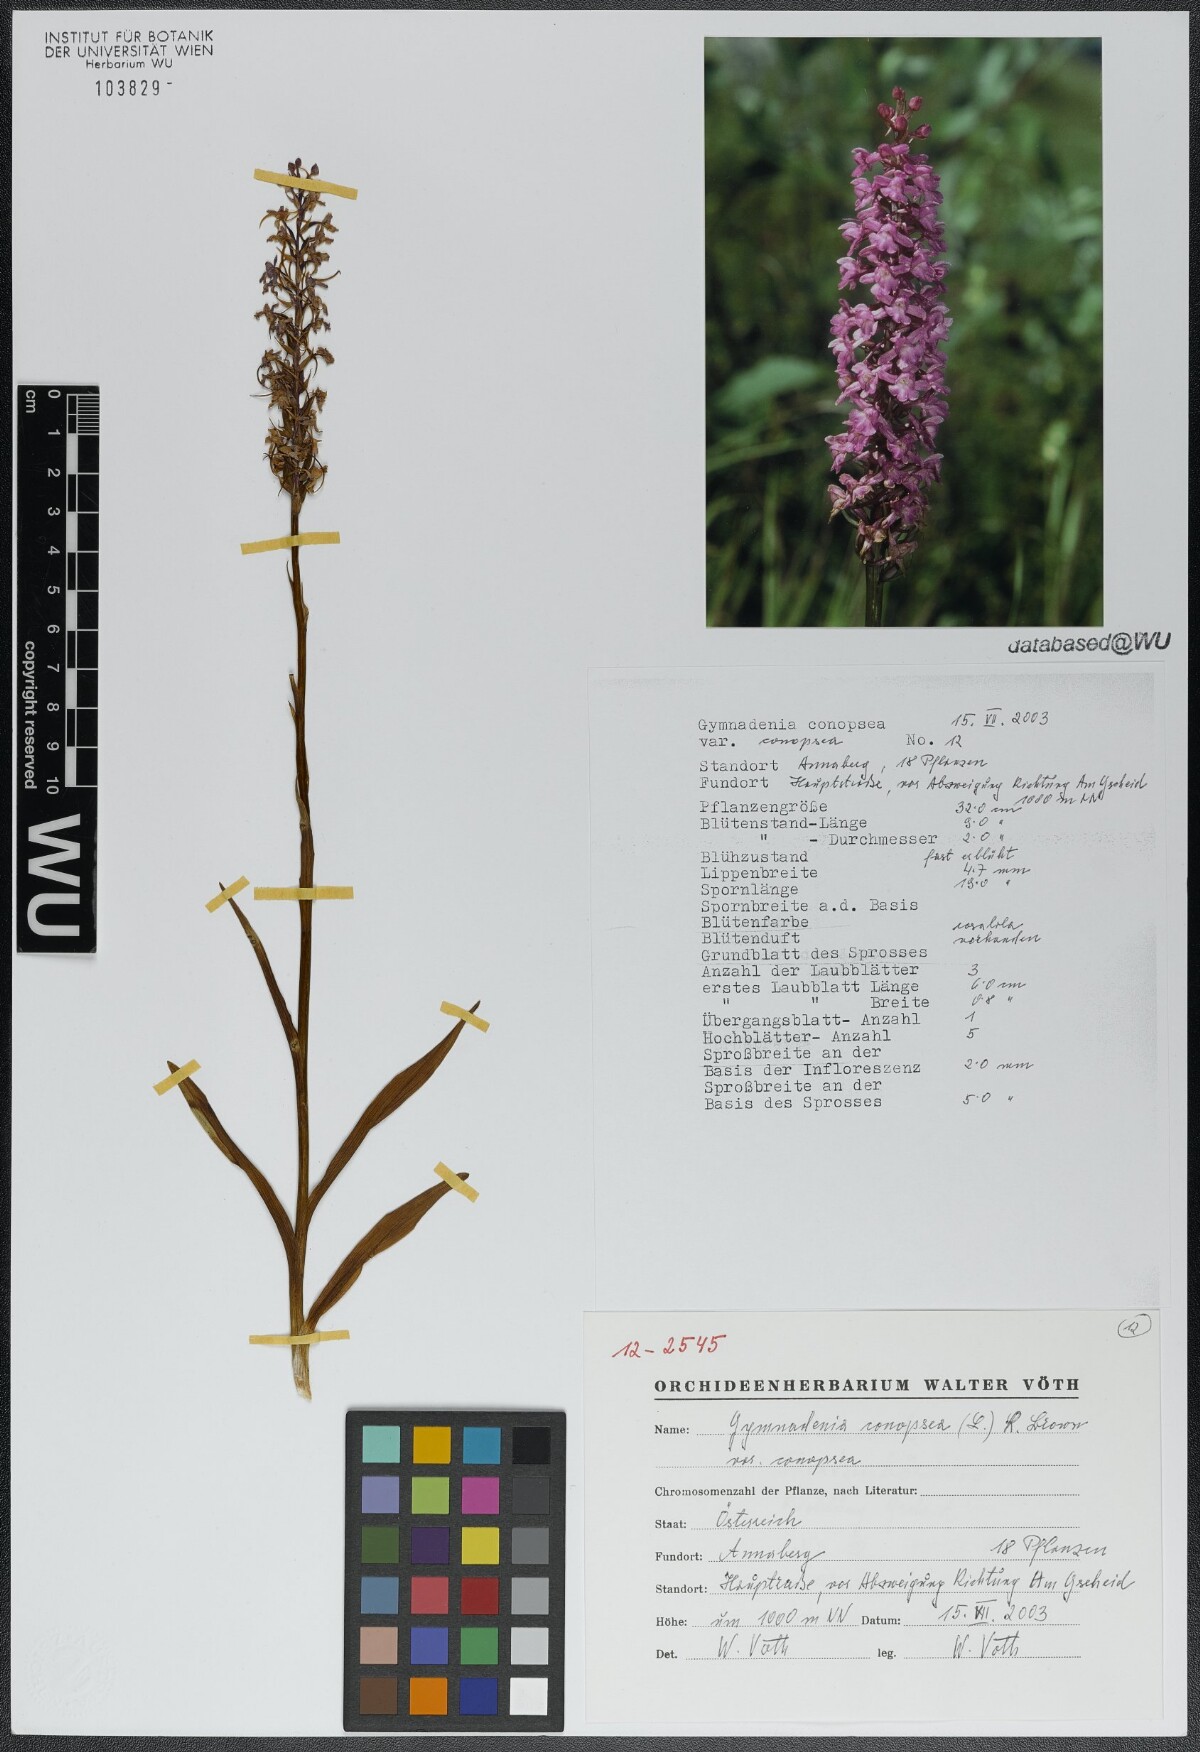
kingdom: Plantae
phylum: Tracheophyta
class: Liliopsida
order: Asparagales
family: Orchidaceae
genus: Gymnadenia
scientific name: Gymnadenia conopsea
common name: Fragrant orchid
